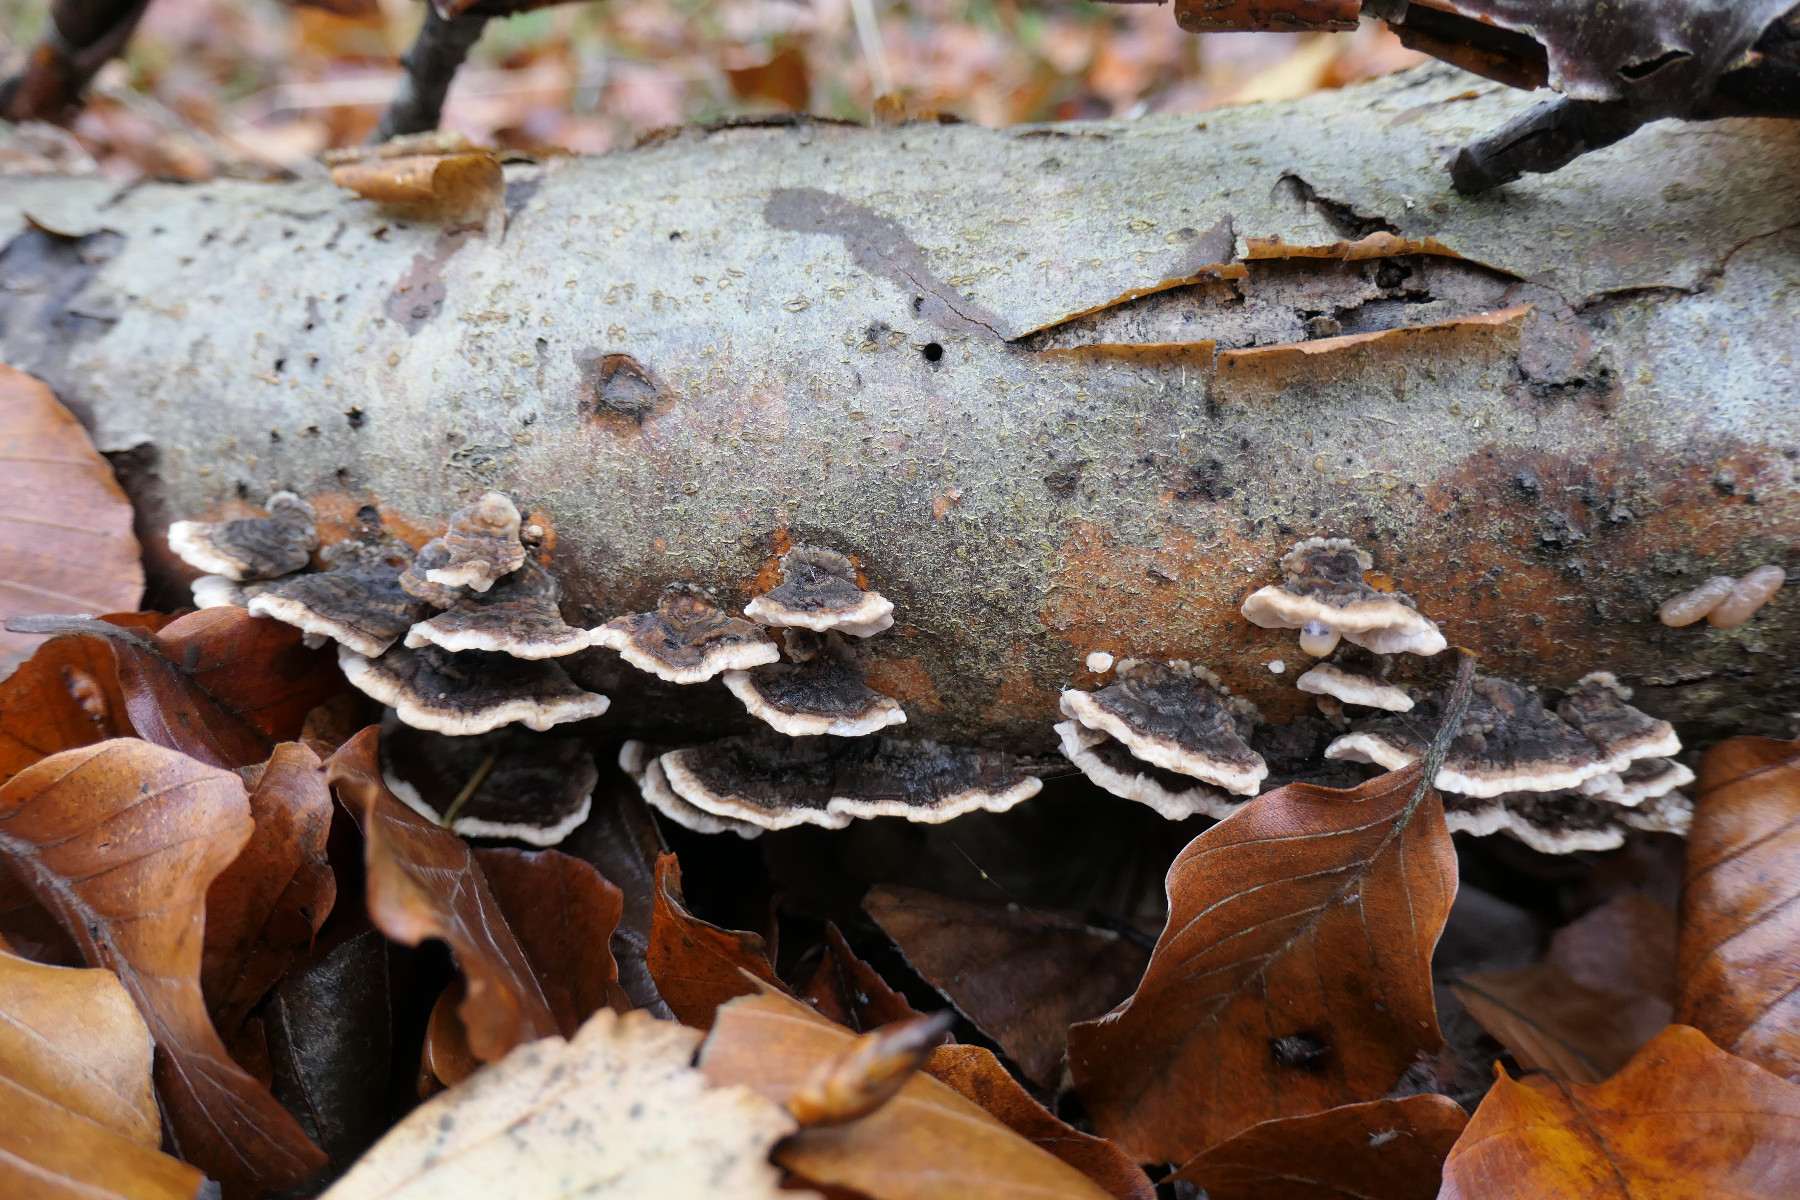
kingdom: Fungi
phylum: Basidiomycota
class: Agaricomycetes
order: Polyporales
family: Polyporaceae
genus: Trametes
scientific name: Trametes versicolor
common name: broget læderporesvamp
